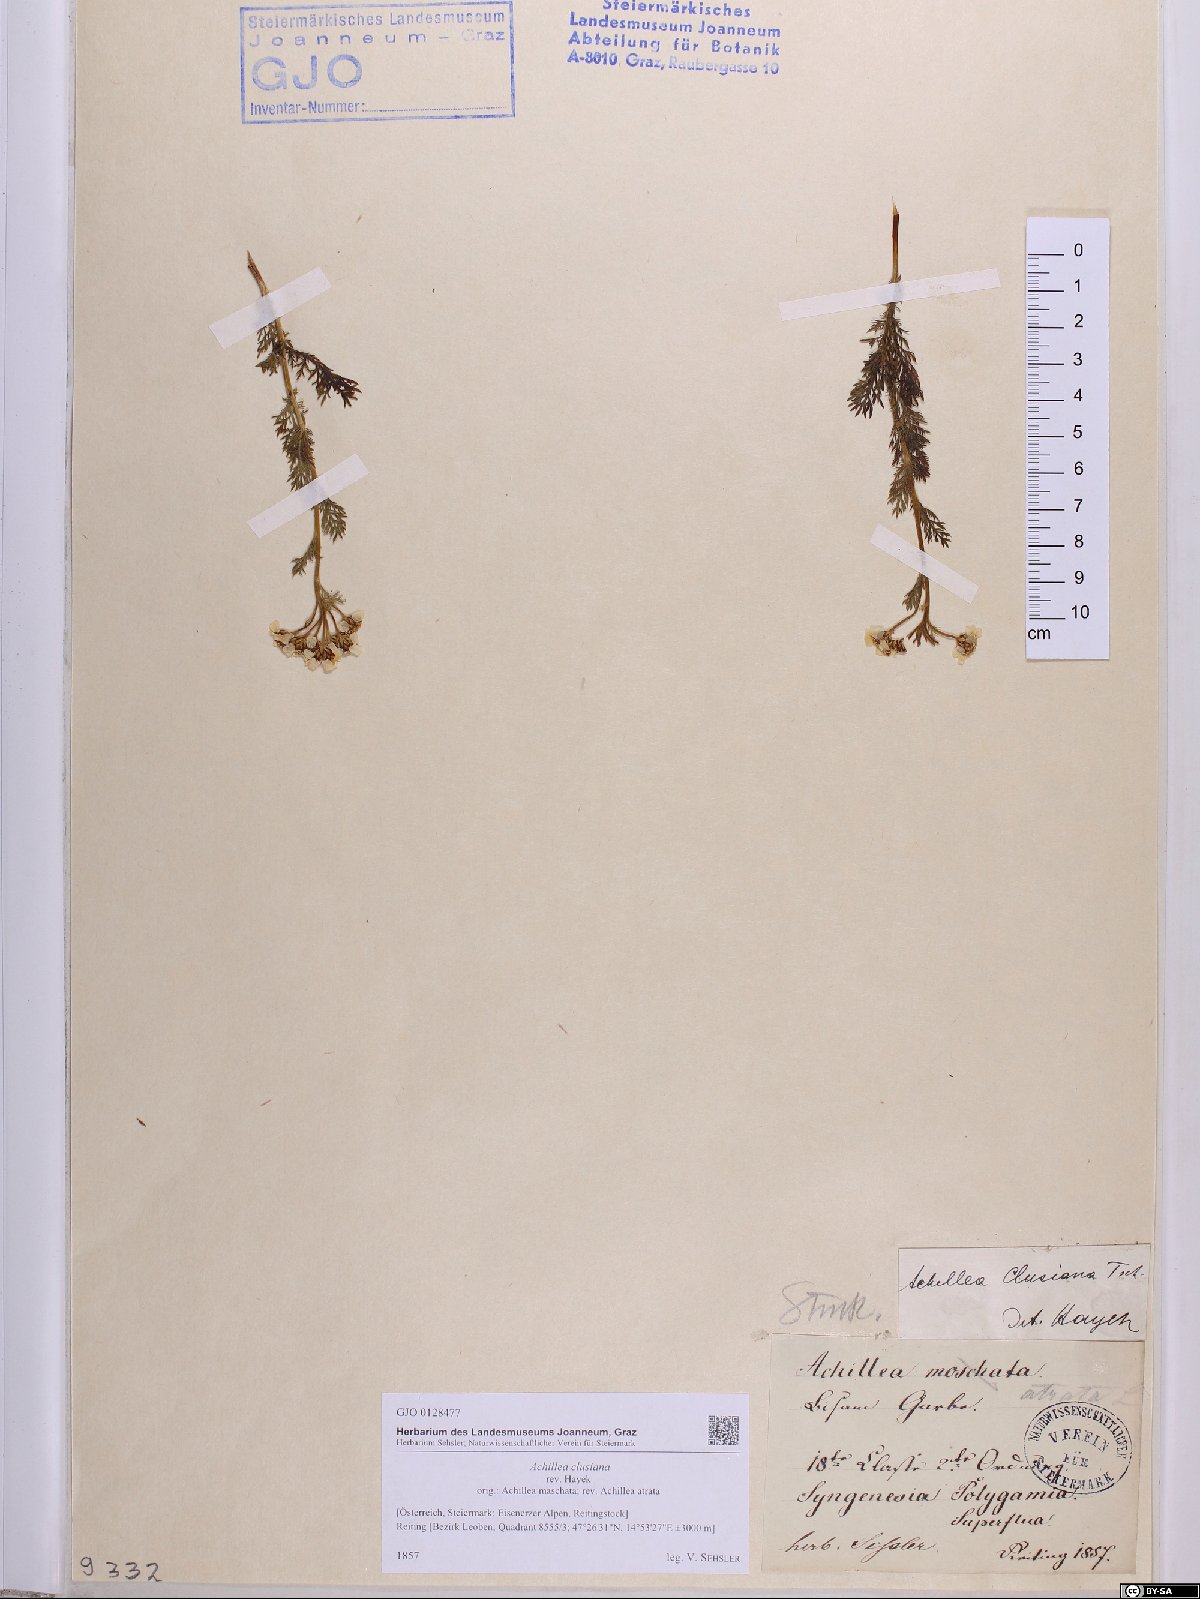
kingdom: Plantae
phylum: Tracheophyta
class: Magnoliopsida
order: Asterales
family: Asteraceae
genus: Achillea
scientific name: Achillea clusiana
